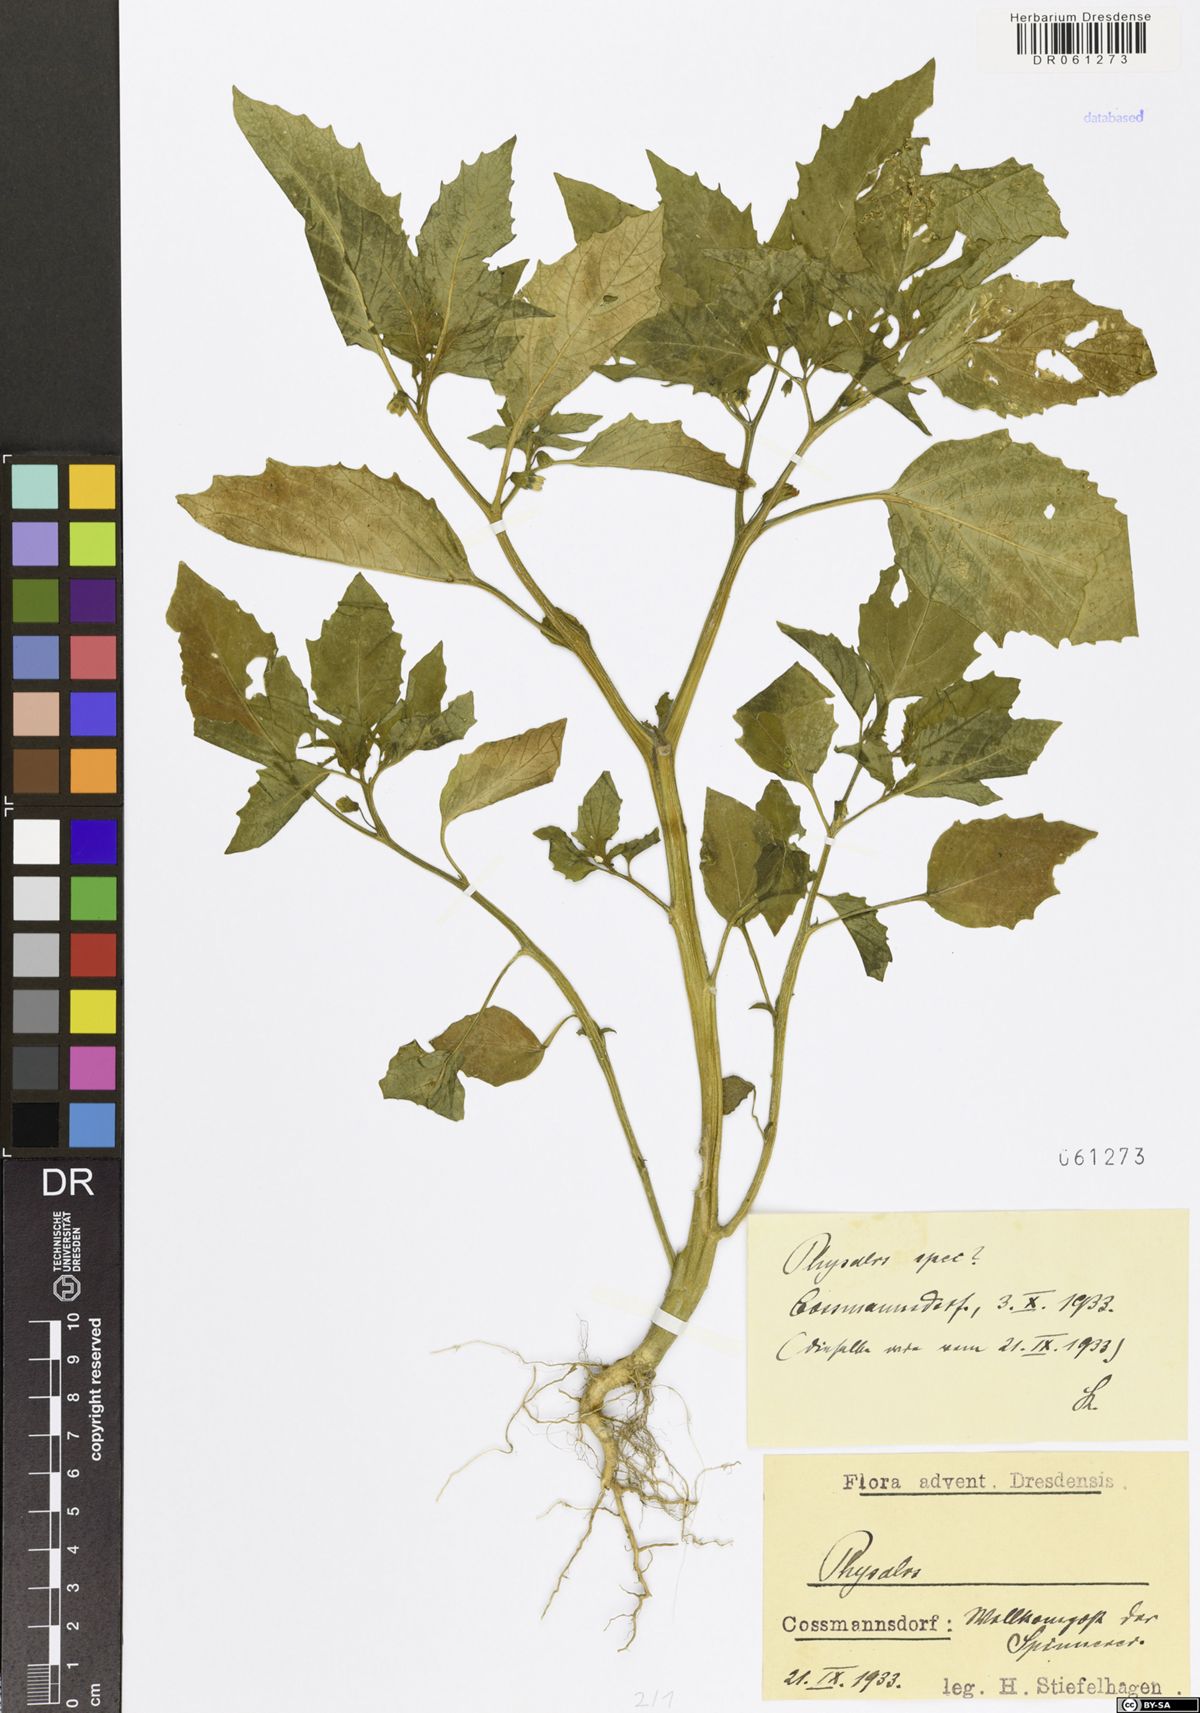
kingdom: Plantae
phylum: Tracheophyta
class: Magnoliopsida
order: Solanales
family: Solanaceae
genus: Physalis
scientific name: Physalis
